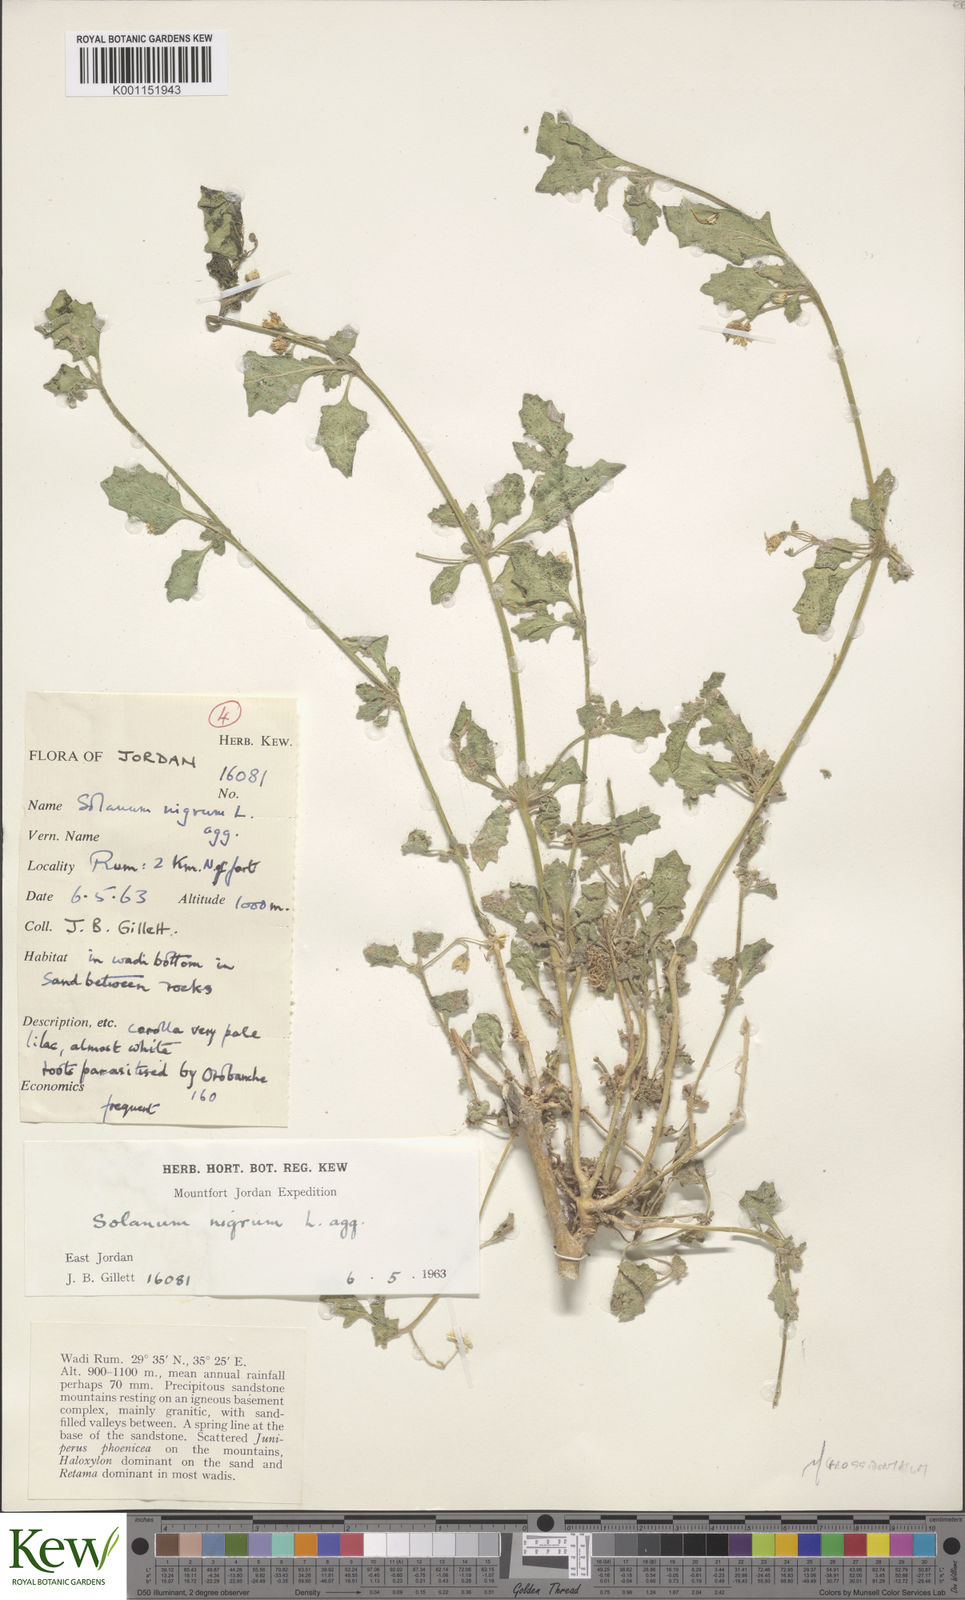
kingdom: Plantae
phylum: Tracheophyta
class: Magnoliopsida
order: Solanales
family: Solanaceae
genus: Solanum
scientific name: Solanum villosum
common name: Red nightshade
